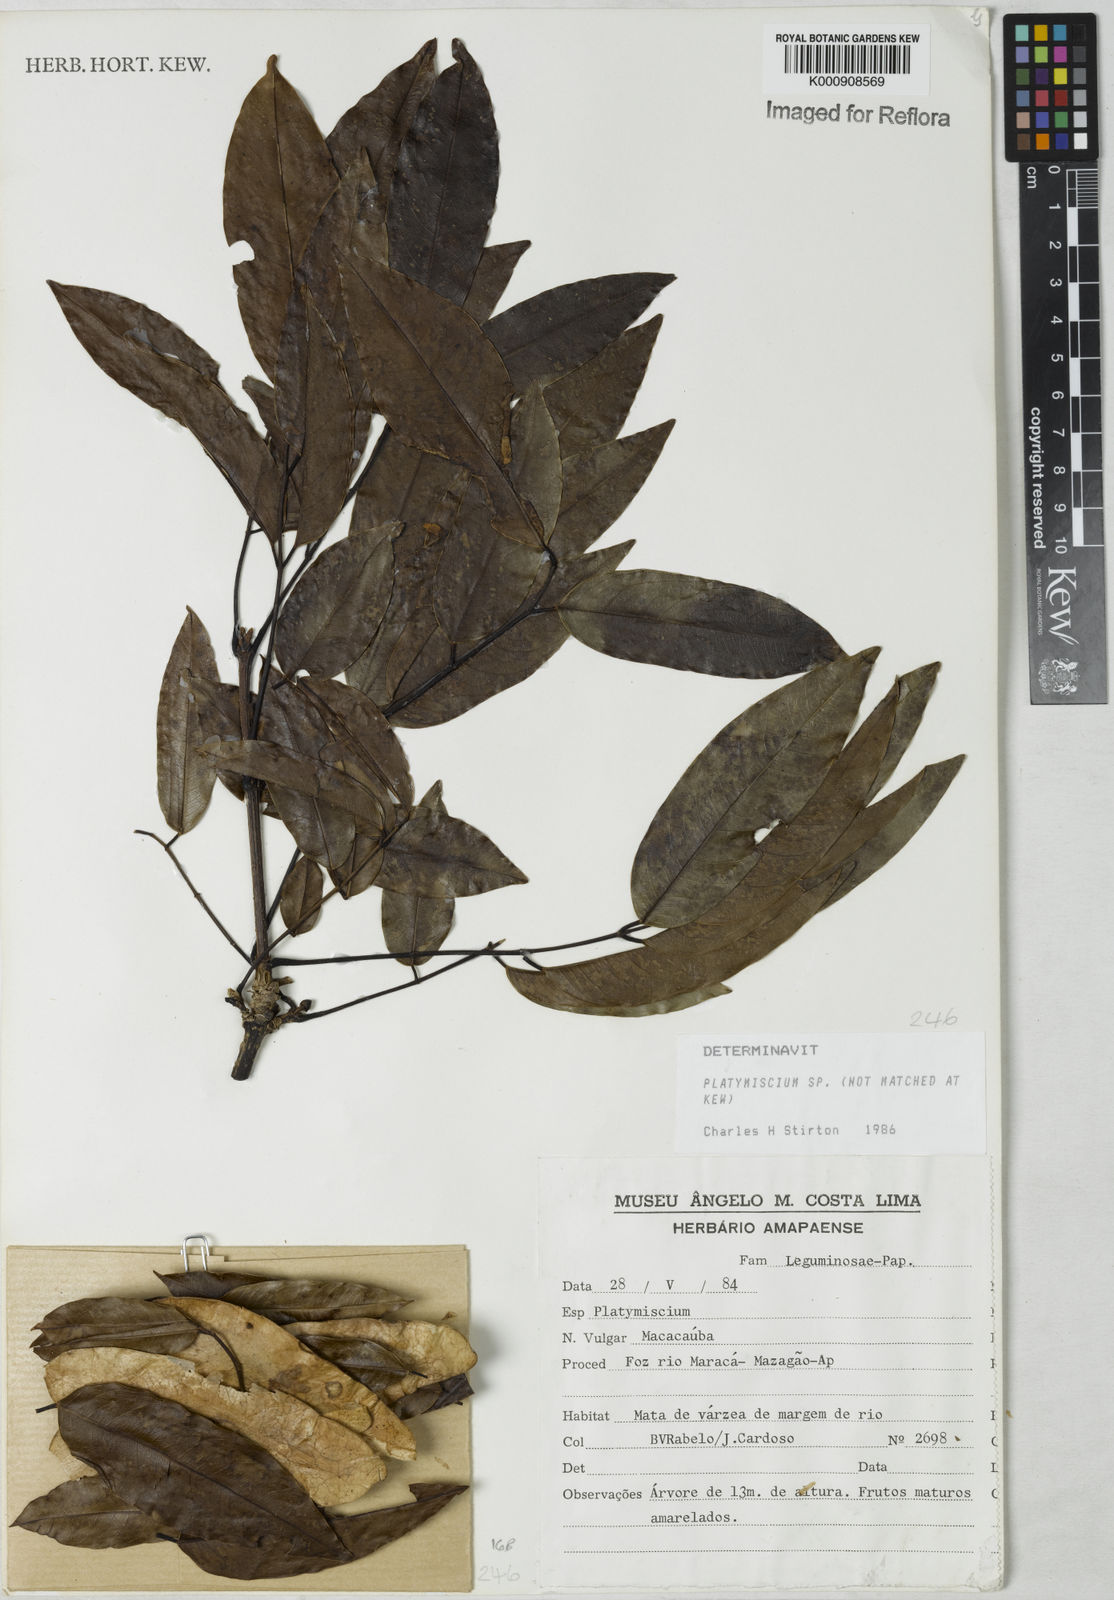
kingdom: Plantae
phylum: Tracheophyta
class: Magnoliopsida
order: Fabales
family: Fabaceae
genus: Platymiscium
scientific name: Platymiscium
